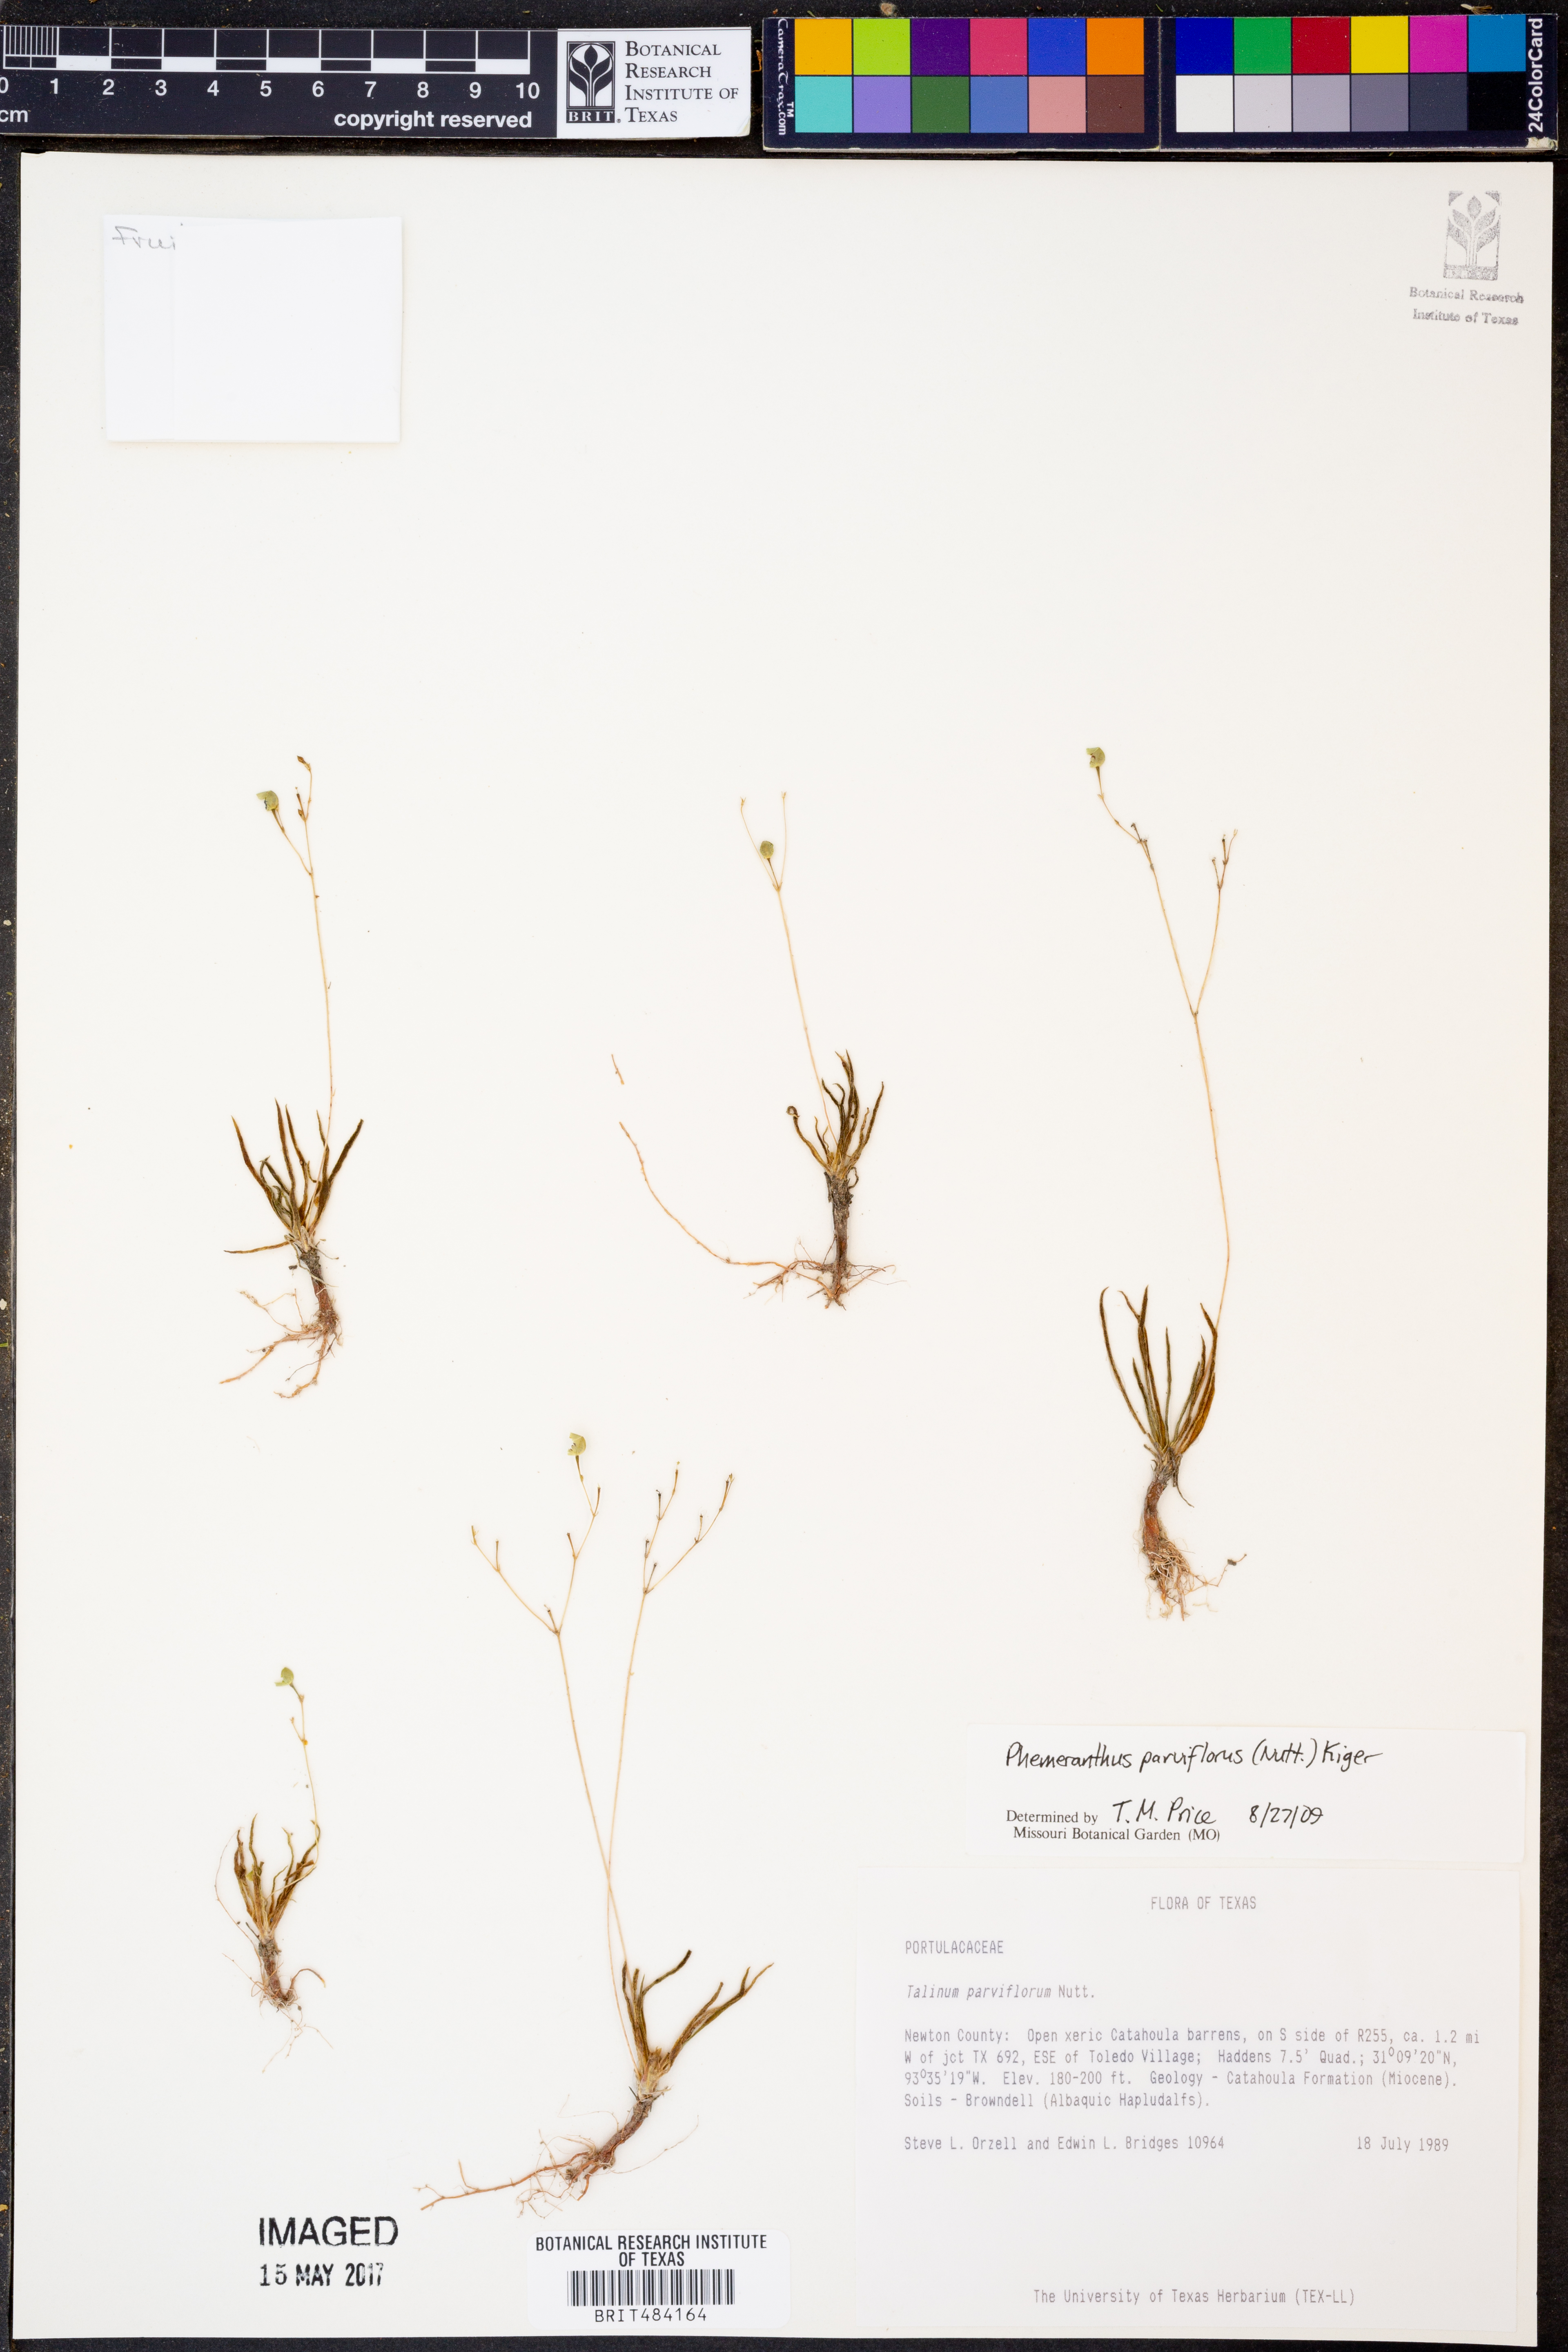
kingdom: Plantae
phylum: Tracheophyta
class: Magnoliopsida
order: Caryophyllales
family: Montiaceae
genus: Phemeranthus
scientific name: Phemeranthus parviflorus
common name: Sunbright
